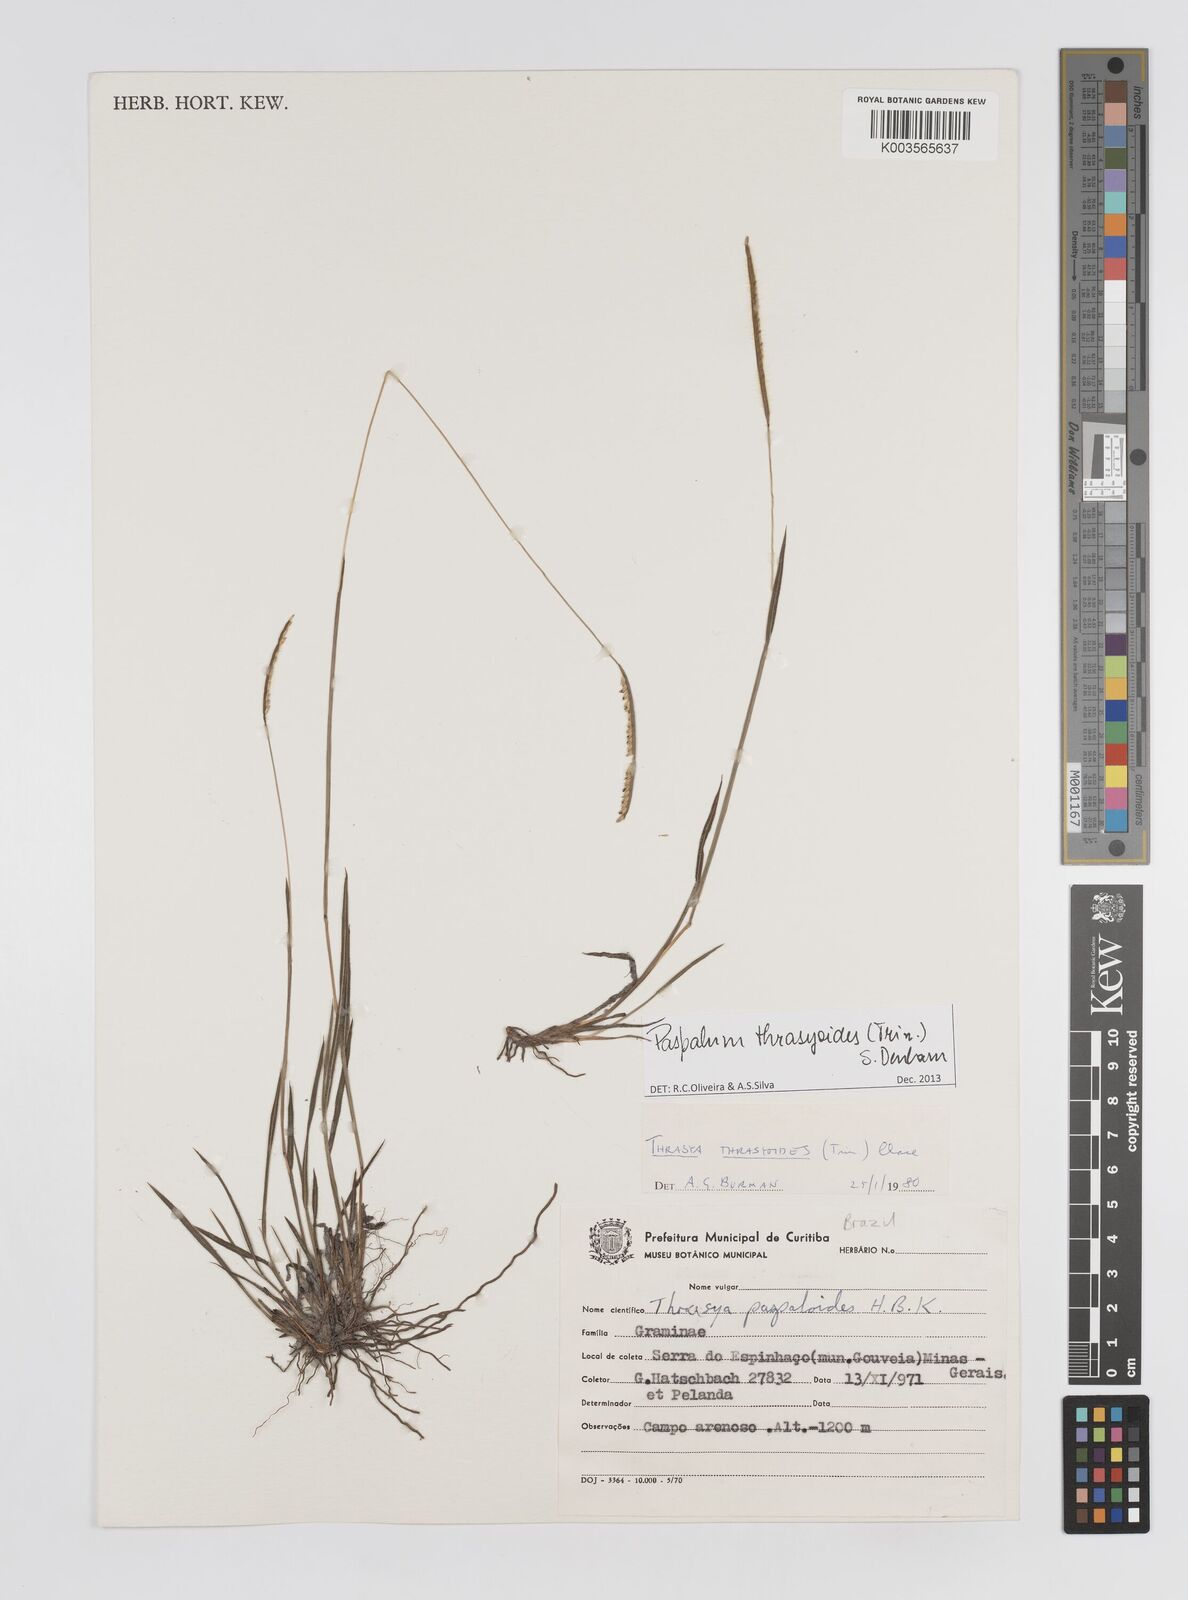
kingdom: Plantae
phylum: Tracheophyta
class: Liliopsida
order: Poales
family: Poaceae
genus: Paspalum
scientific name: Paspalum thrasyoides
